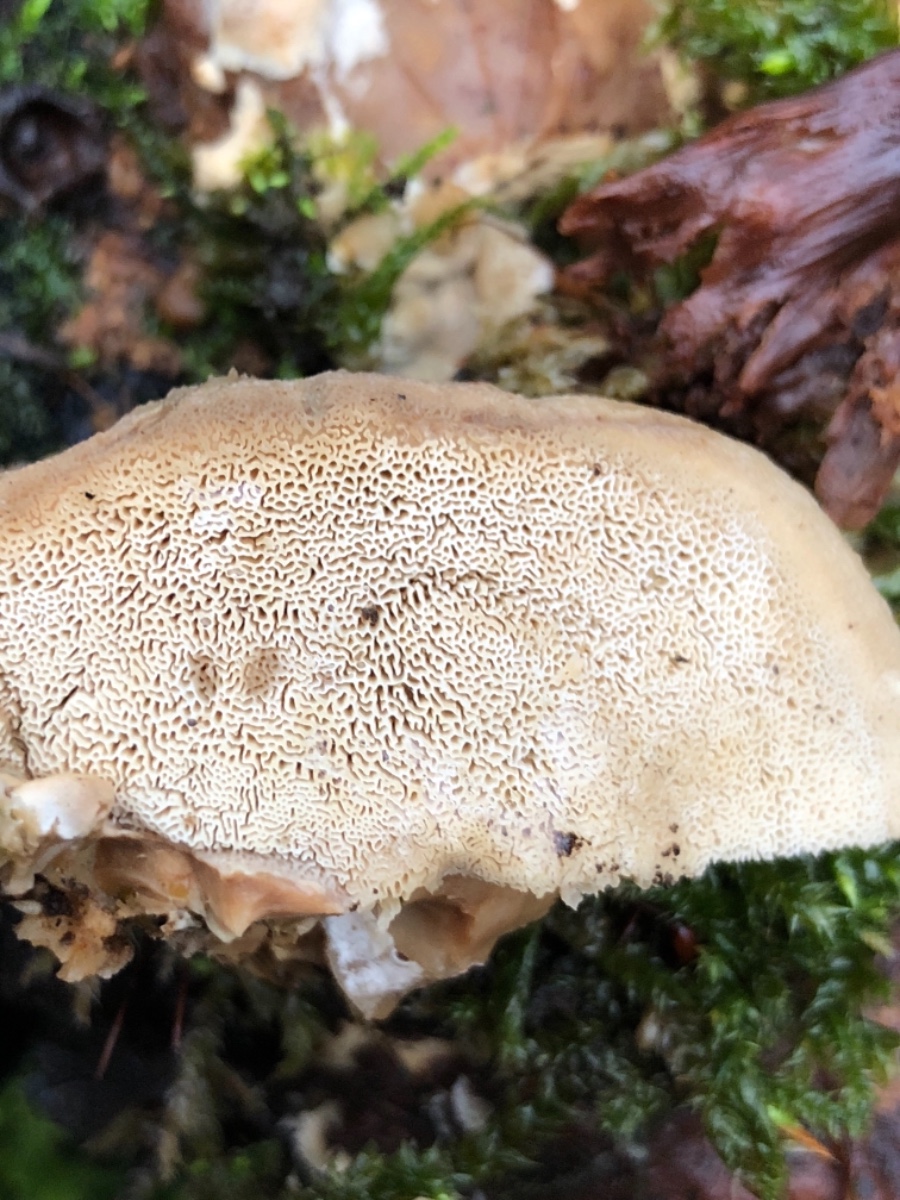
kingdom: Fungi
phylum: Basidiomycota
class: Agaricomycetes
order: Polyporales
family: Phanerochaetaceae
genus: Bjerkandera
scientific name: Bjerkandera fumosa
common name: grågul sodporesvamp
